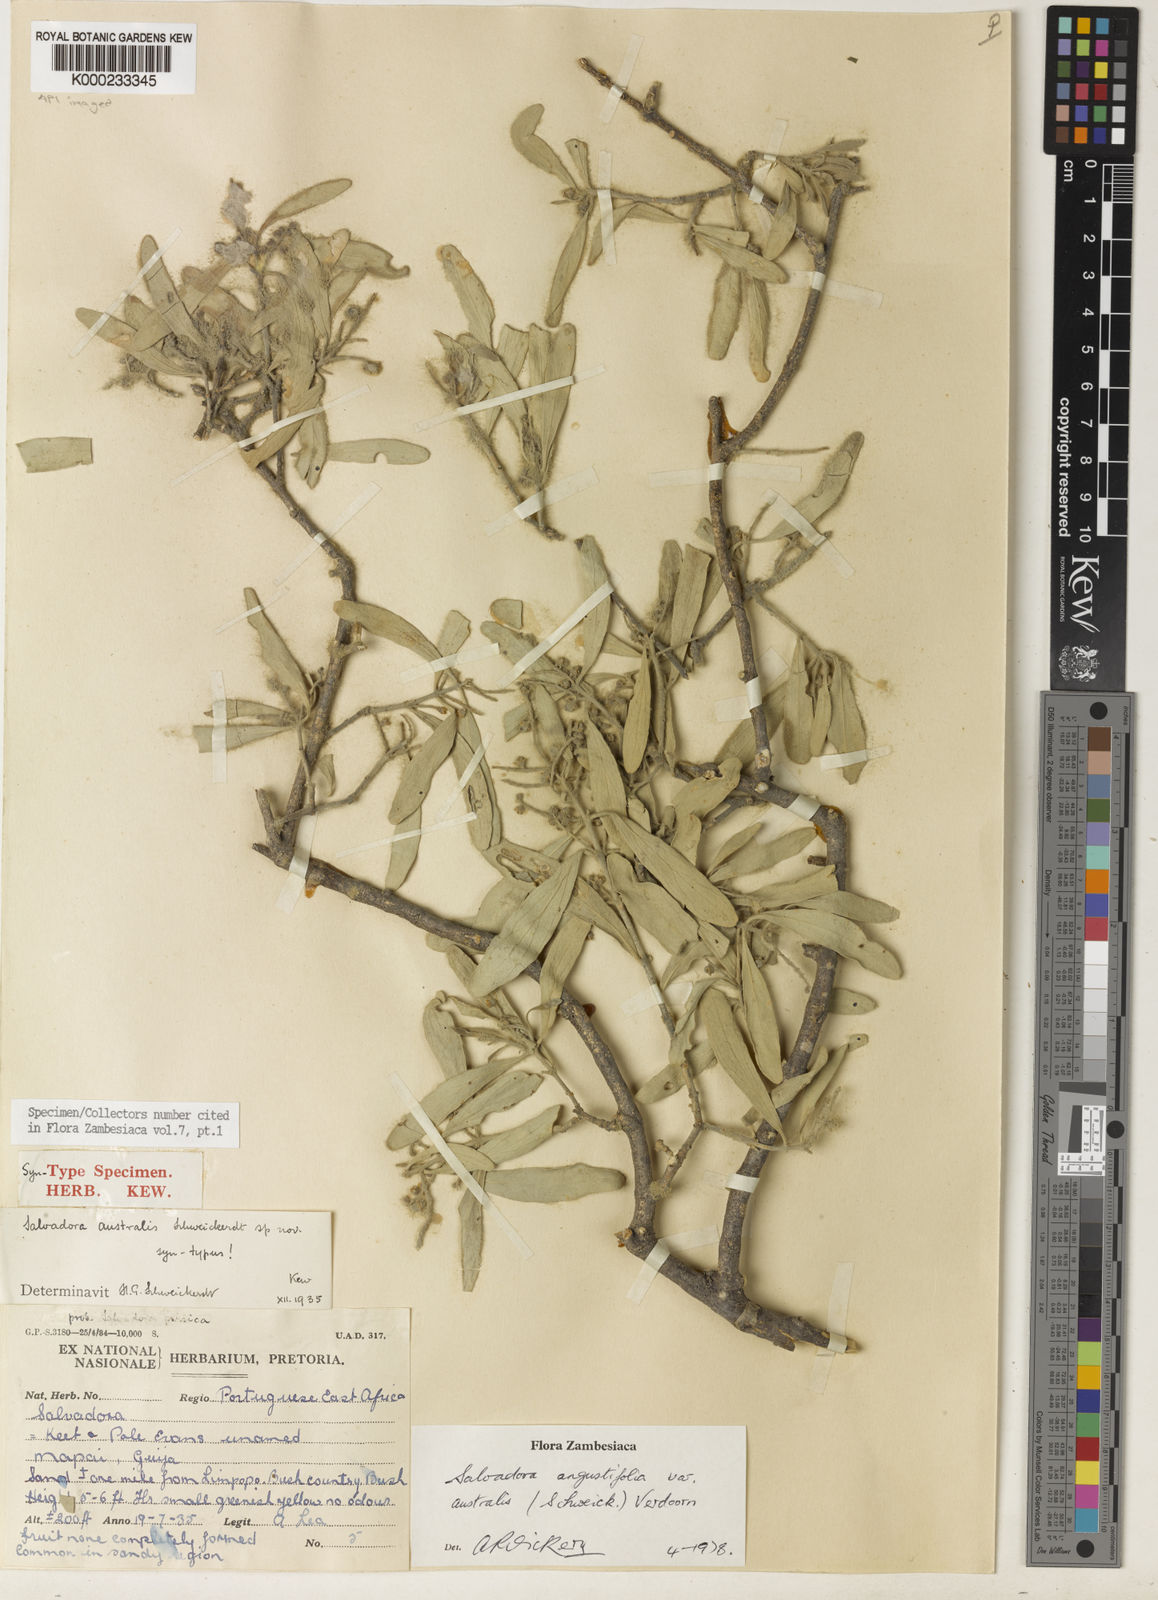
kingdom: Plantae
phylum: Tracheophyta
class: Magnoliopsida
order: Brassicales
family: Salvadoraceae
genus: Salvadora
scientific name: Salvadora australis
